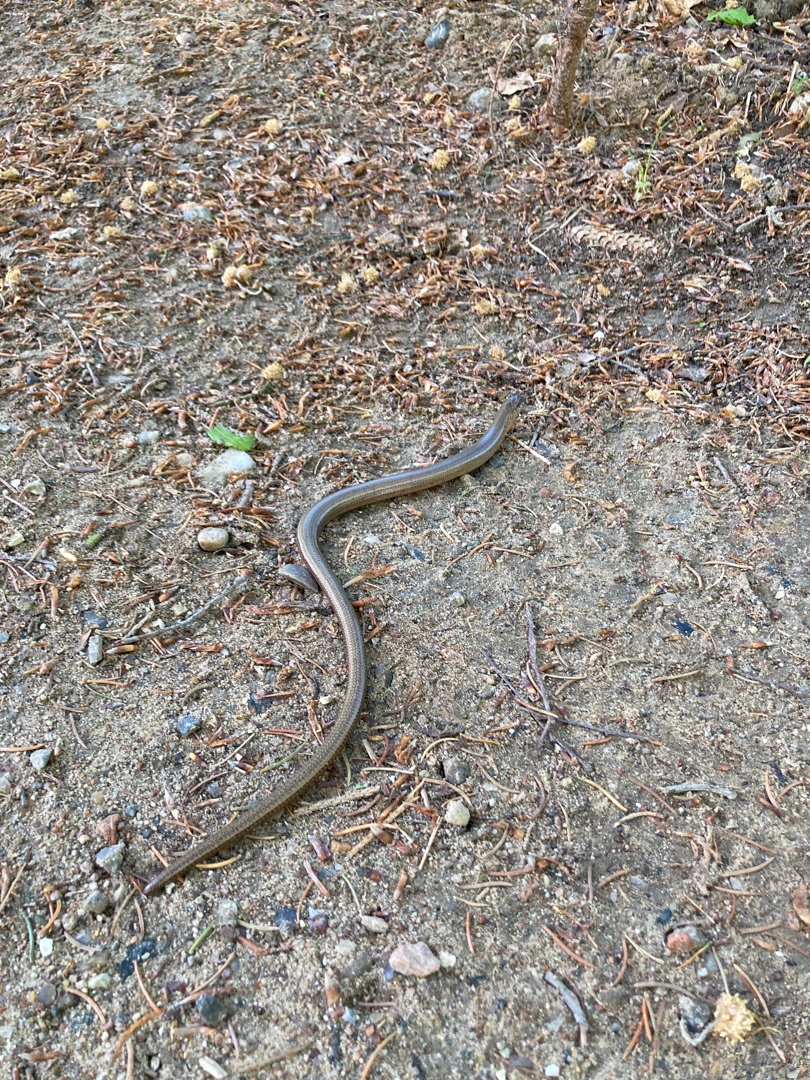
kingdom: Animalia
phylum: Chordata
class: Squamata
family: Anguidae
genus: Anguis
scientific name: Anguis fragilis
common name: Stålorm
